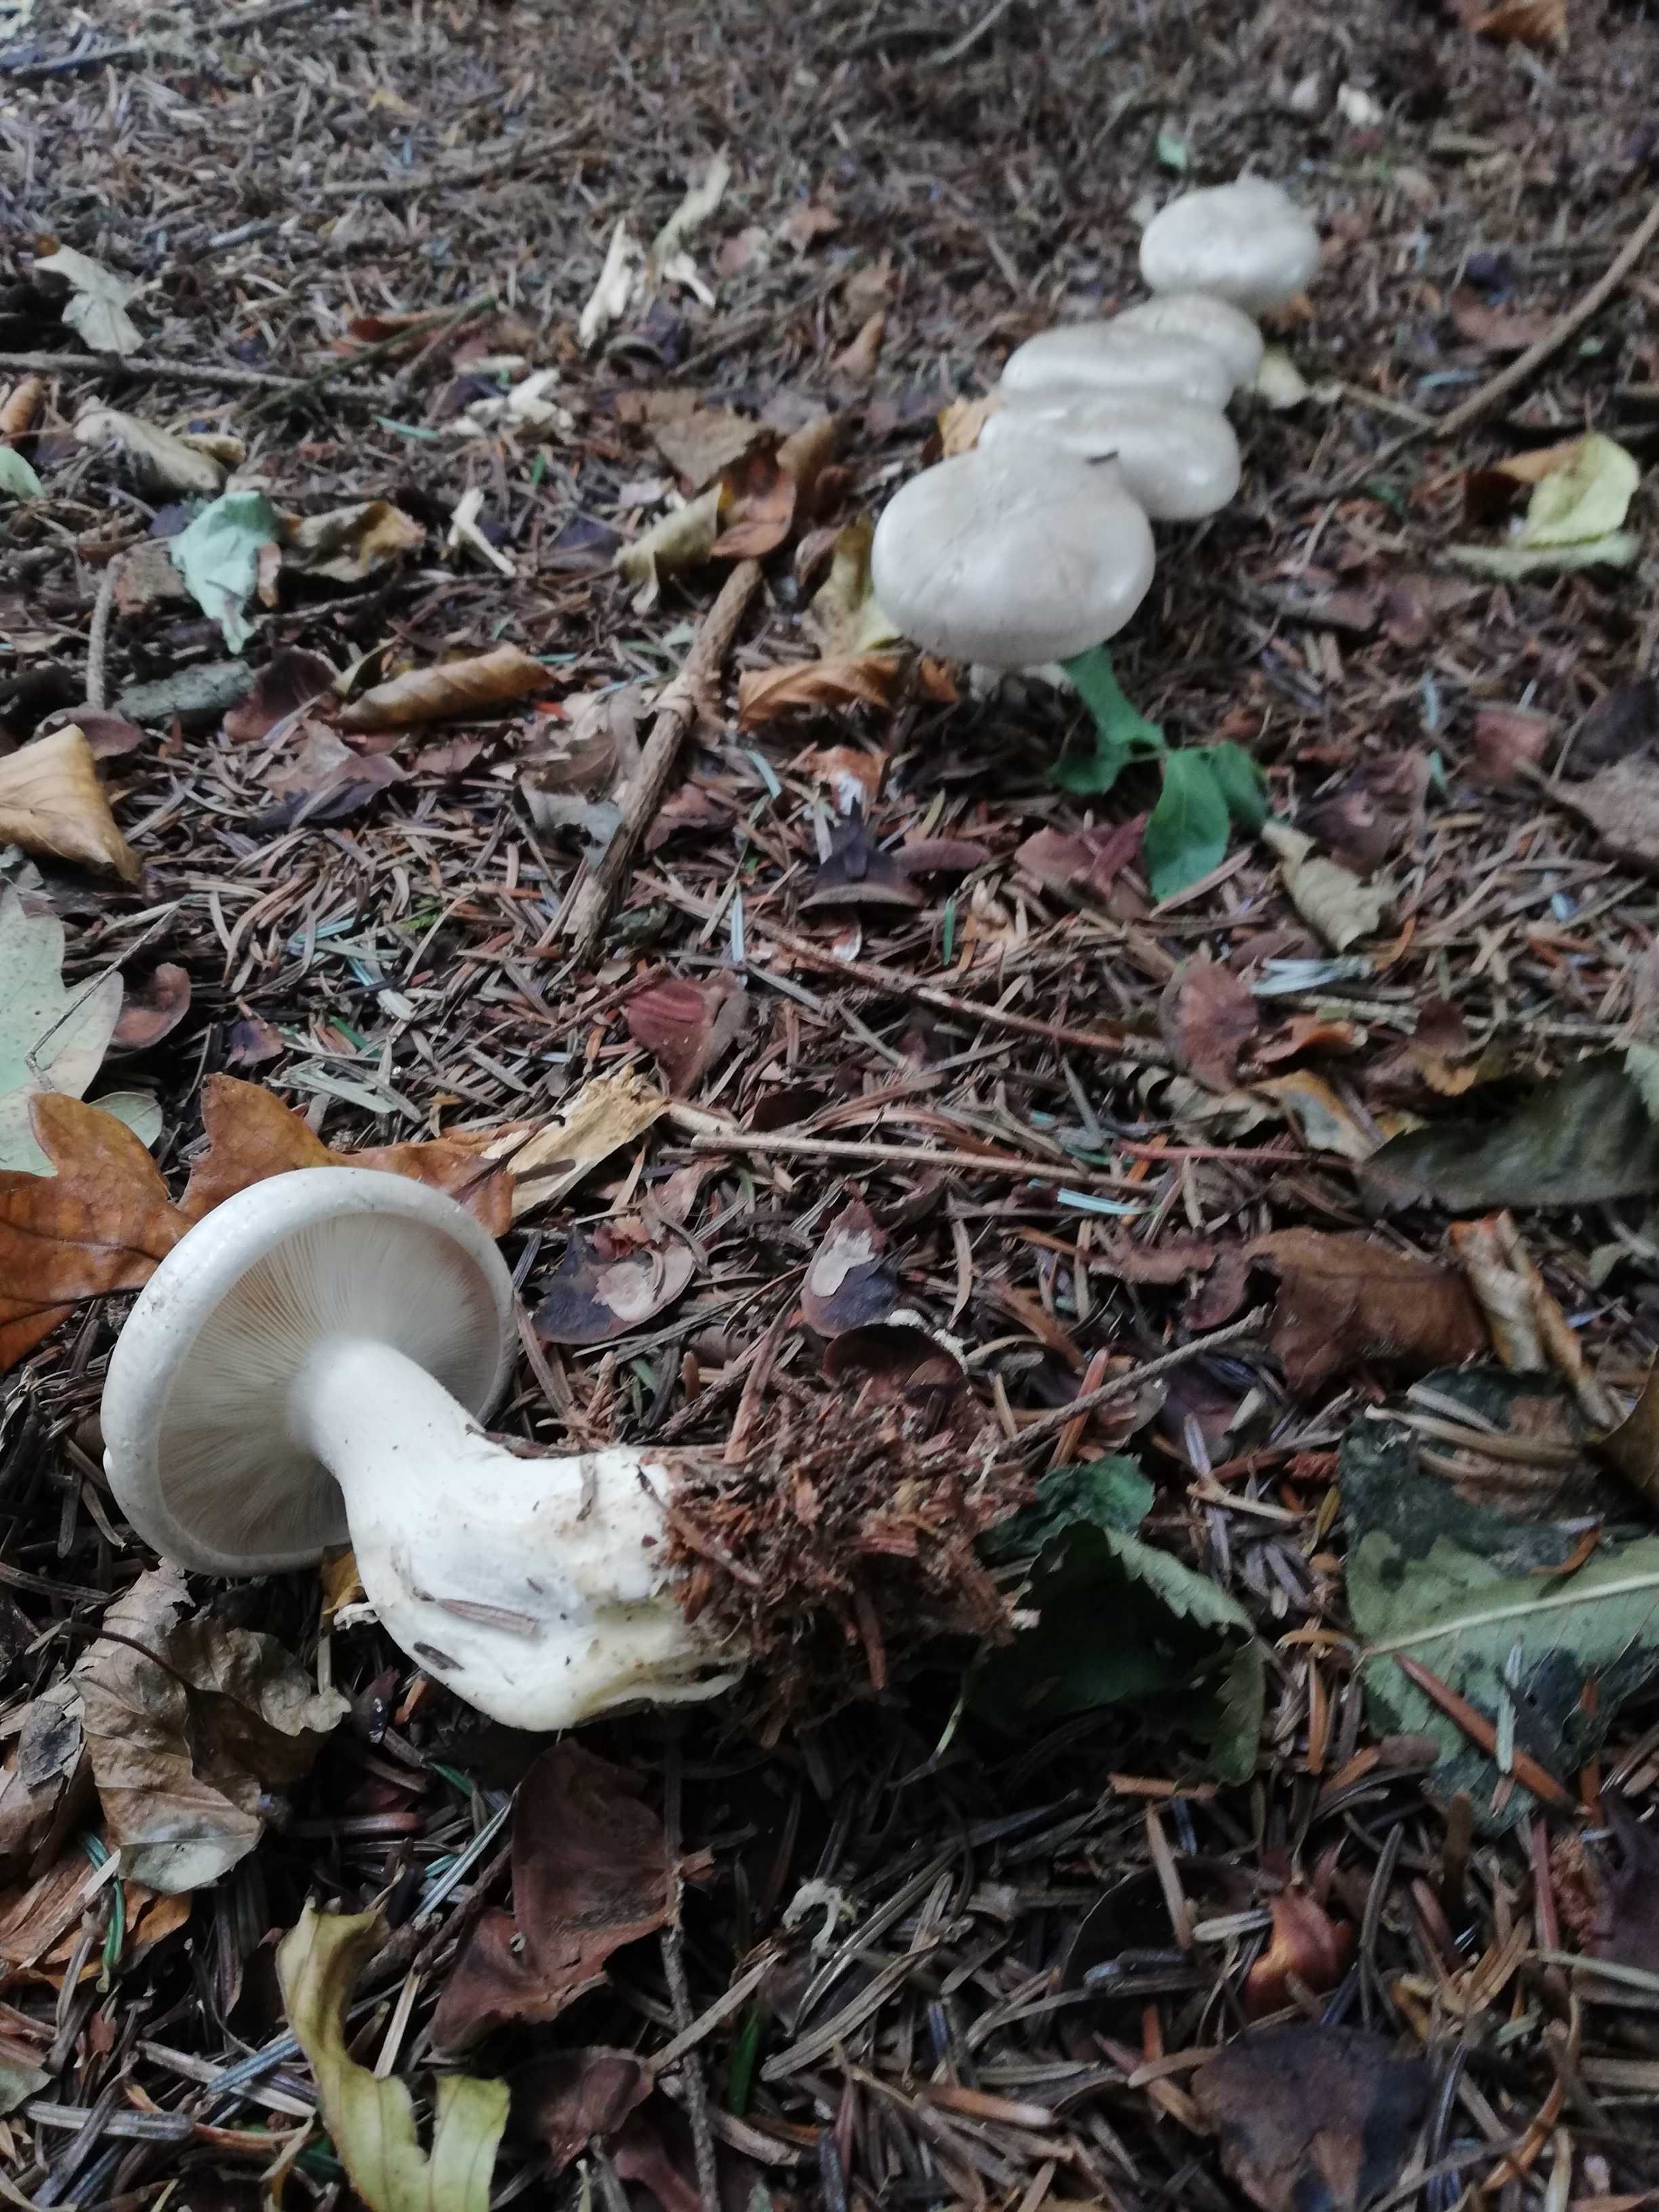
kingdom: Fungi
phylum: Basidiomycota
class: Agaricomycetes
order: Agaricales
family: Tricholomataceae
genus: Clitocybe
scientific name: Clitocybe nebularis
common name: tåge-tragthat
